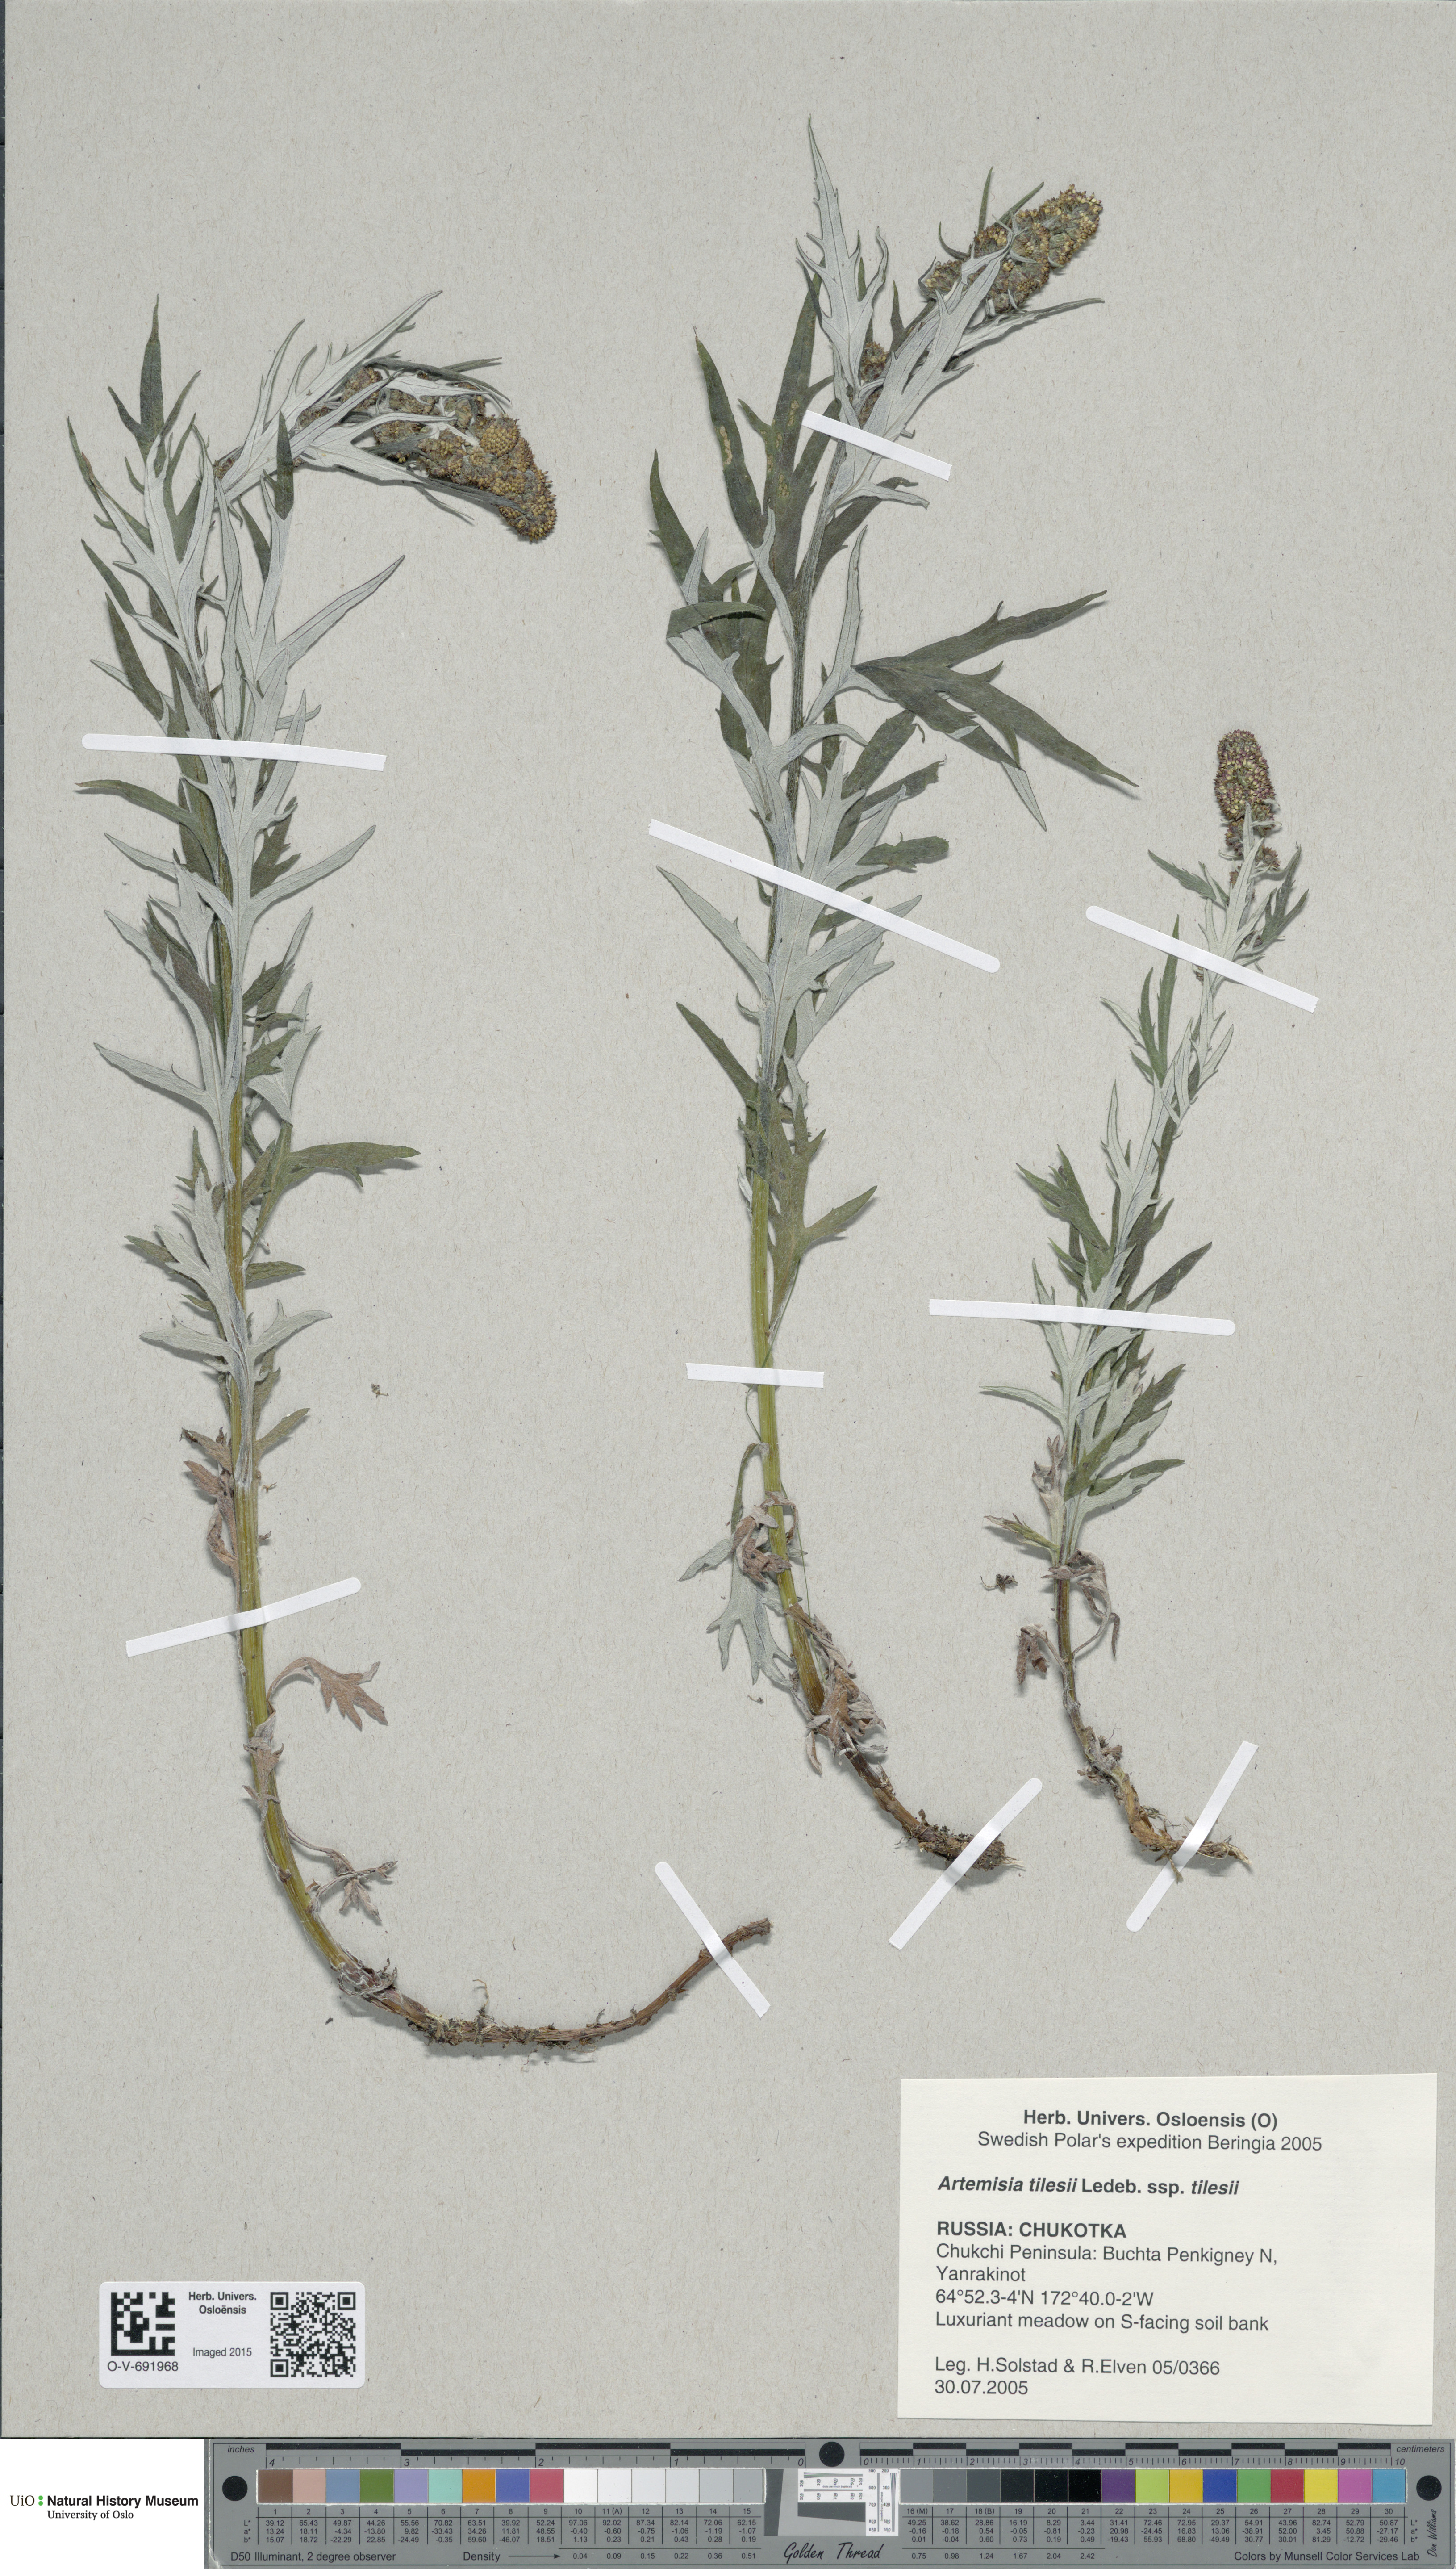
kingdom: Plantae
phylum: Tracheophyta
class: Magnoliopsida
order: Asterales
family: Asteraceae
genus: Artemisia
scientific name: Artemisia tilesii
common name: Aleutian mugwort
